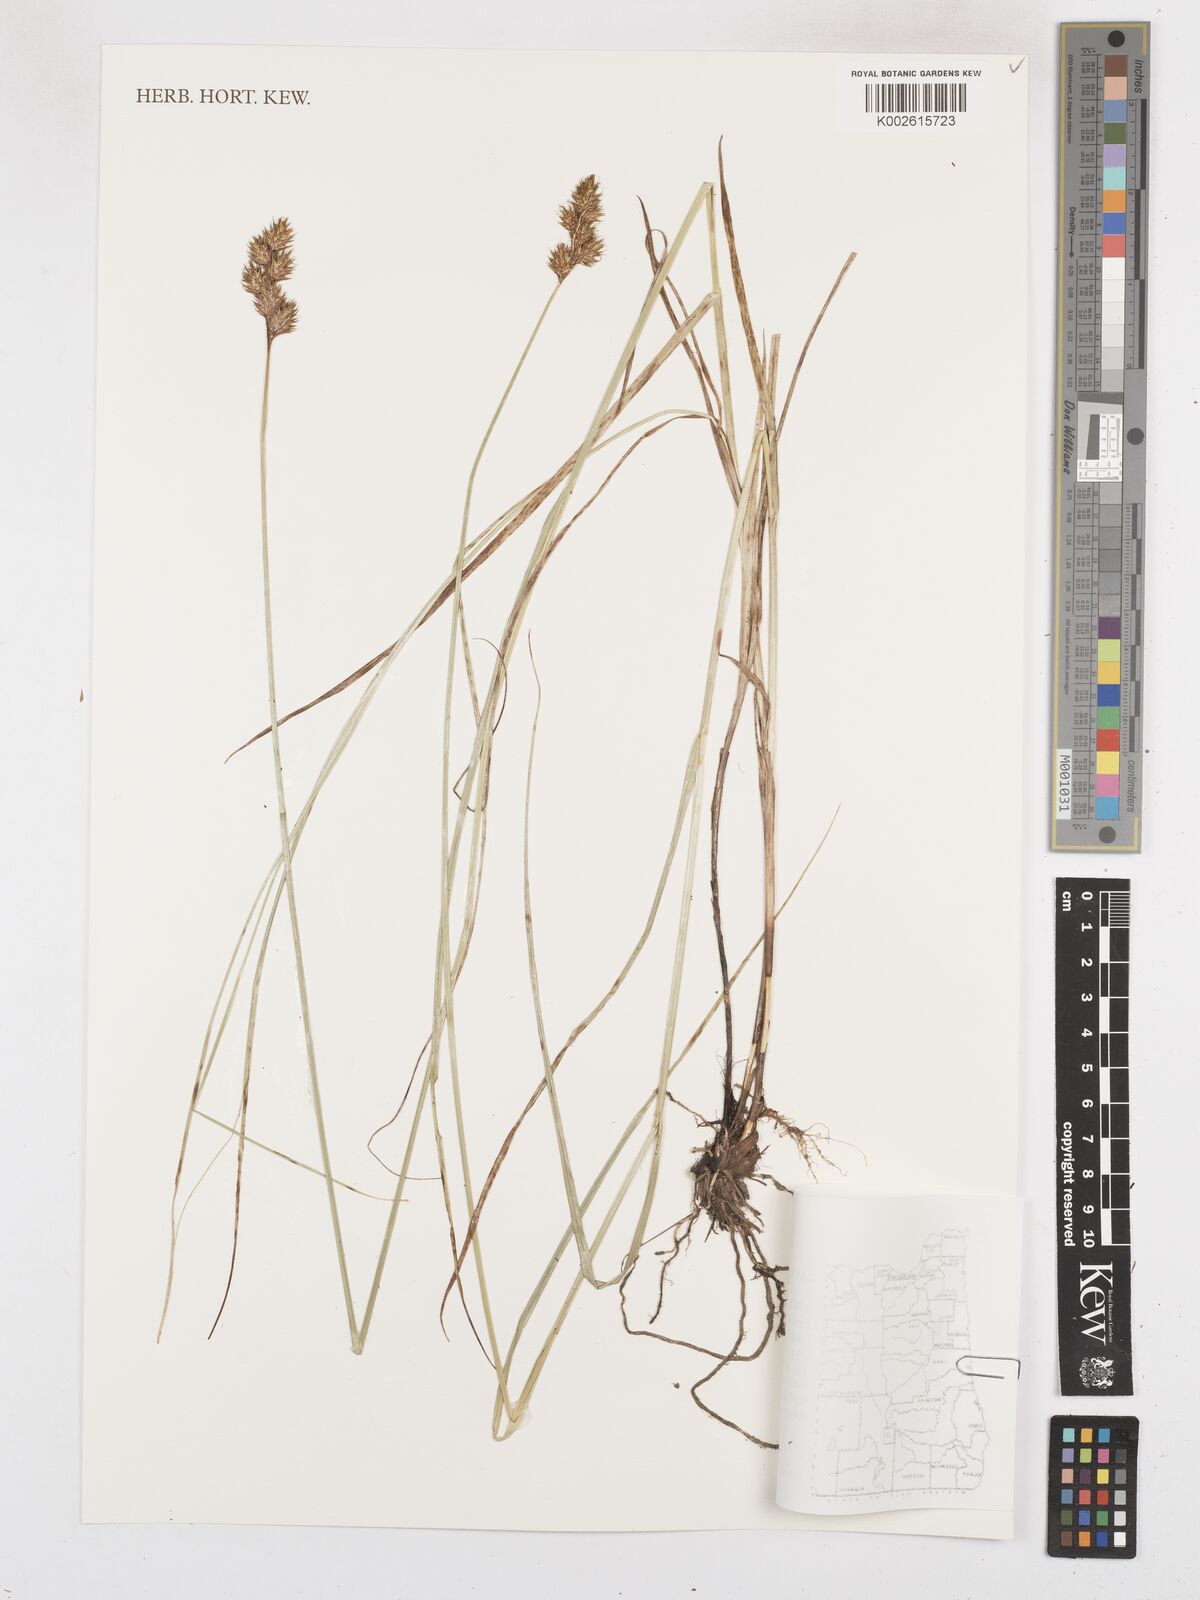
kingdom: Plantae
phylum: Tracheophyta
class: Liliopsida
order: Poales
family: Cyperaceae
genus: Carex
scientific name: Carex leporina
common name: Oval sedge
